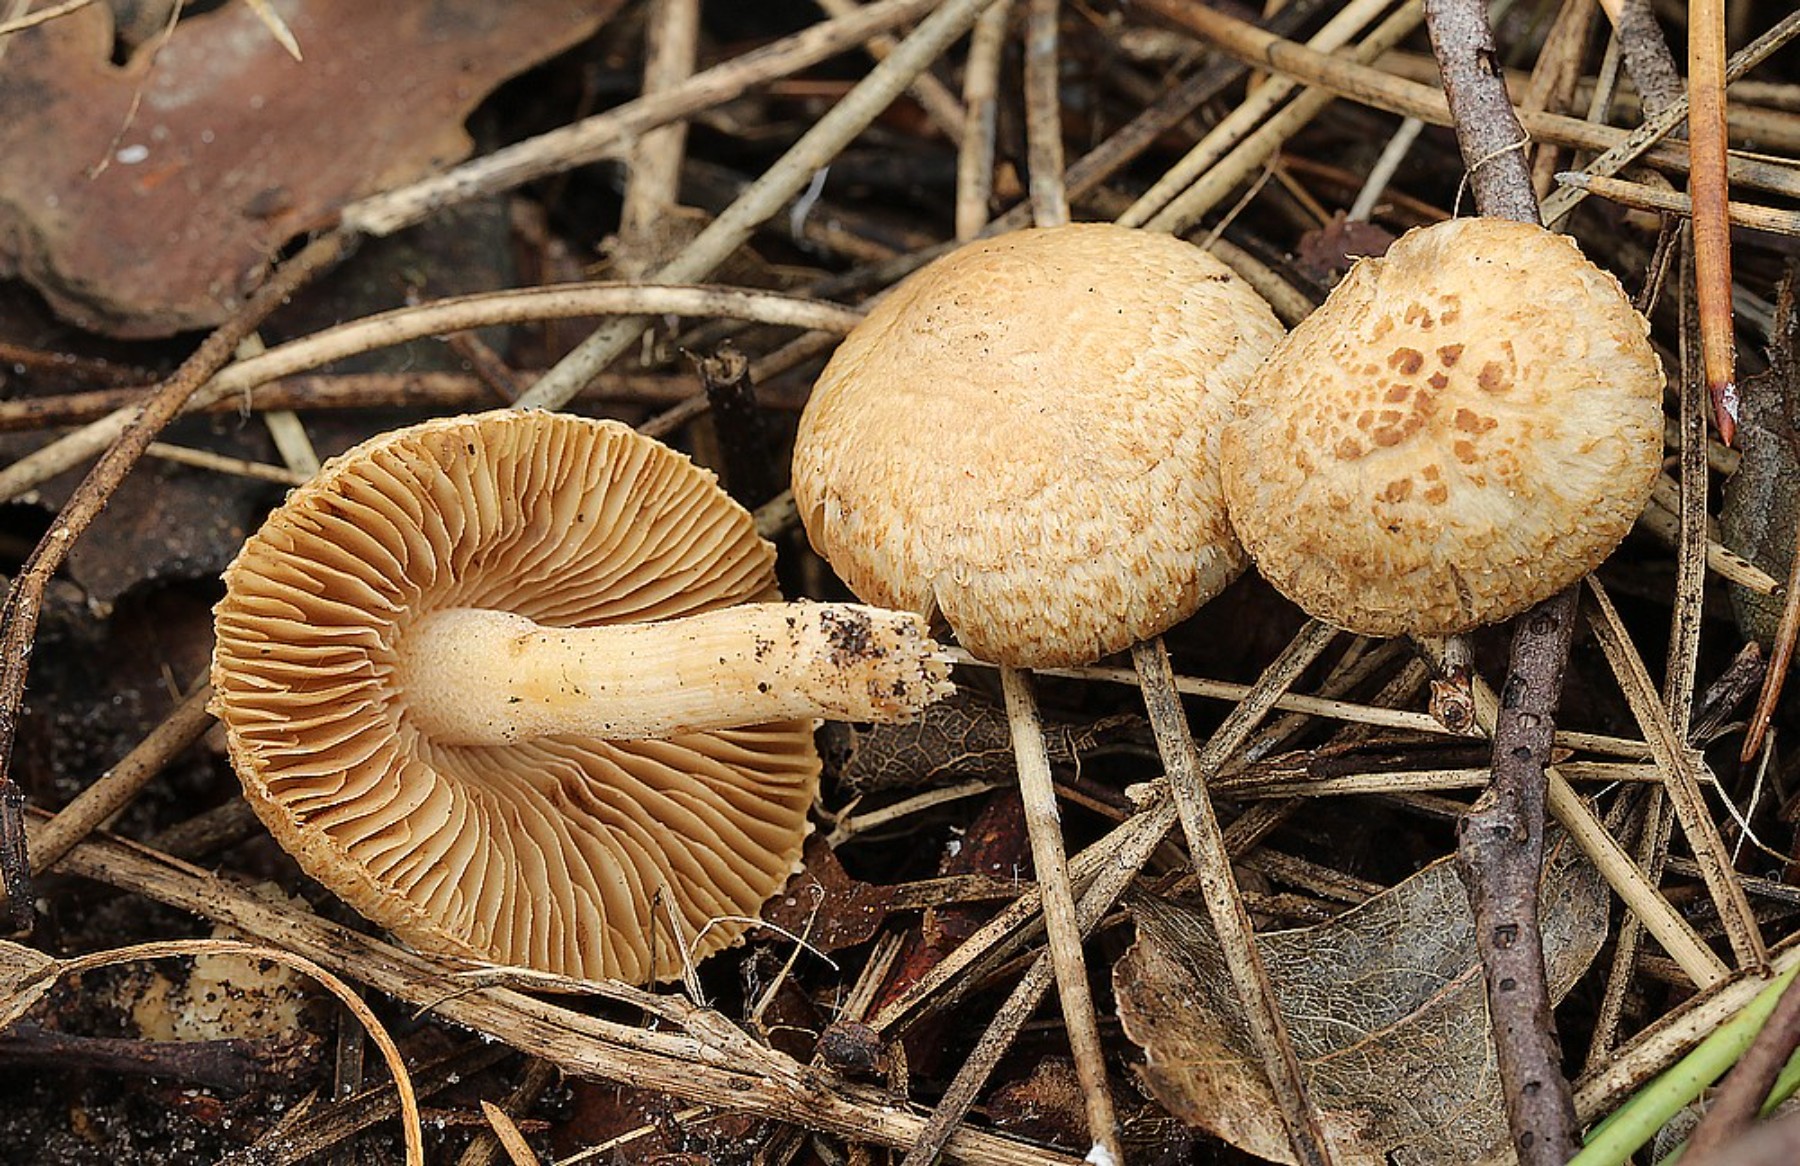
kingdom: Fungi
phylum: Basidiomycota
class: Agaricomycetes
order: Agaricales
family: Inocybaceae
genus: Inocybe
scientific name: Inocybe
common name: trævlhat
